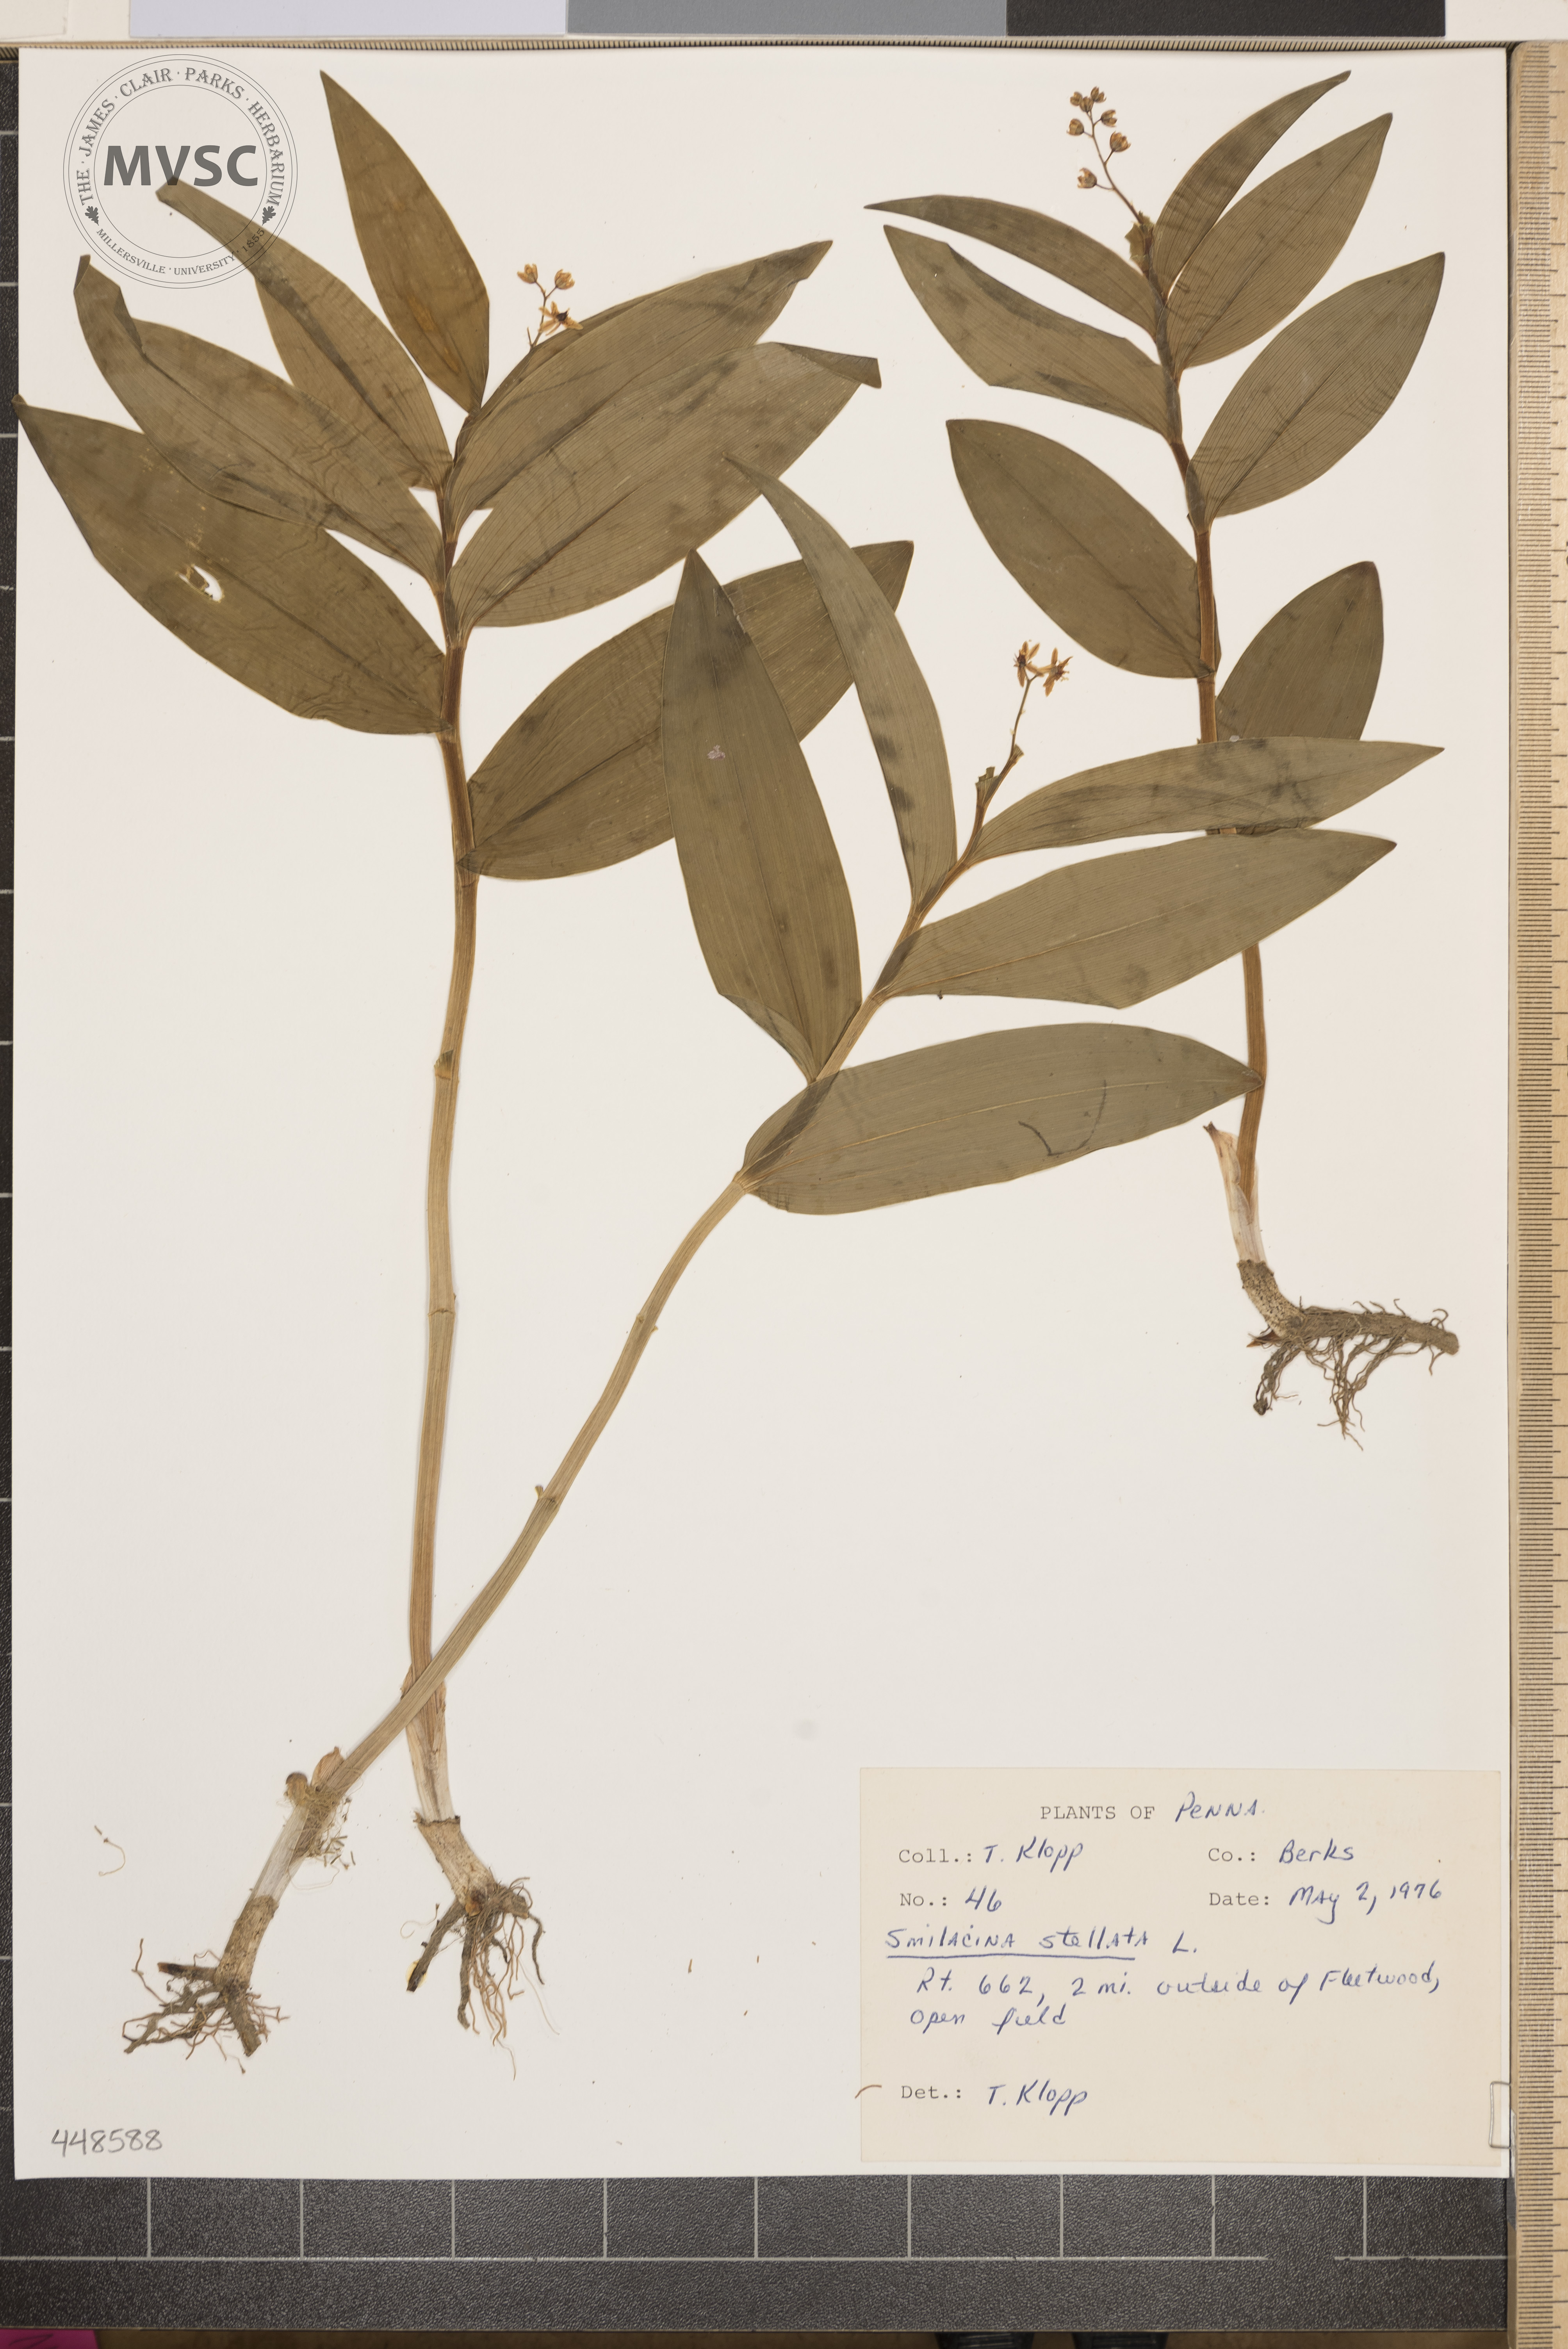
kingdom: Plantae
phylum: Tracheophyta
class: Liliopsida
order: Asparagales
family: Asparagaceae
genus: Maianthemum
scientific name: Maianthemum stellatum
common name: Little false solomon's seal
